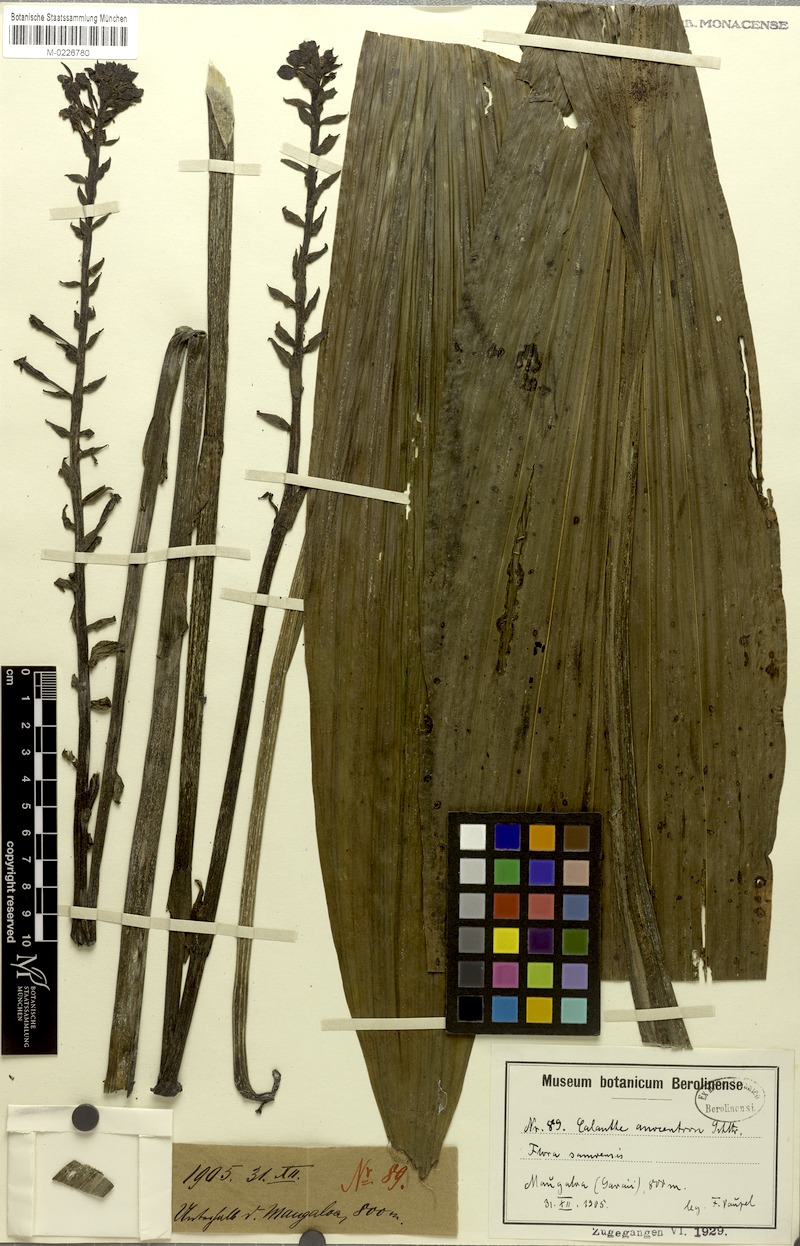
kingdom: Plantae
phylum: Tracheophyta
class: Liliopsida
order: Asparagales
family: Orchidaceae
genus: Calanthe
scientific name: Calanthe alta
